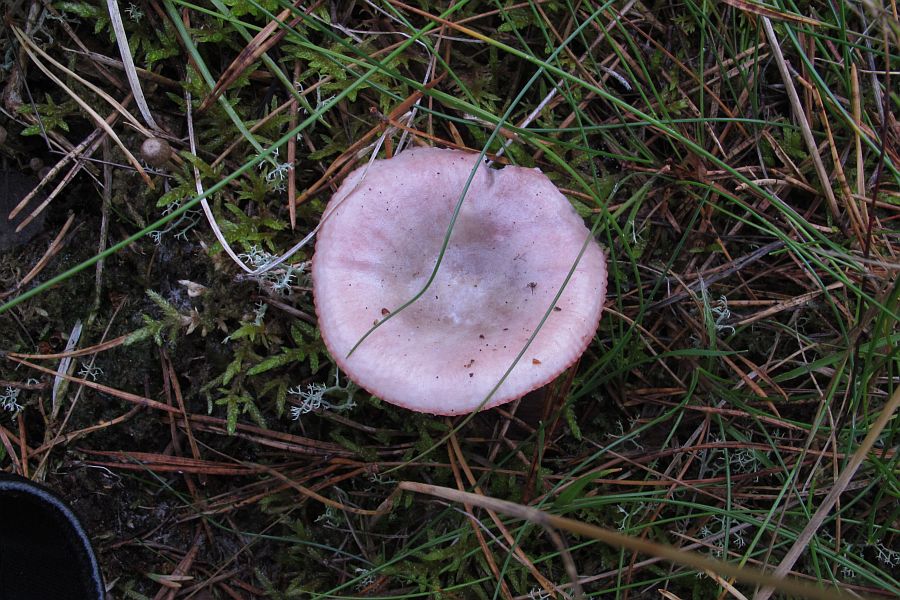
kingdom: Fungi
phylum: Basidiomycota
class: Agaricomycetes
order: Russulales
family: Russulaceae
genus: Russula
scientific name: Russula atrorubens
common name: sortrød skørhat
